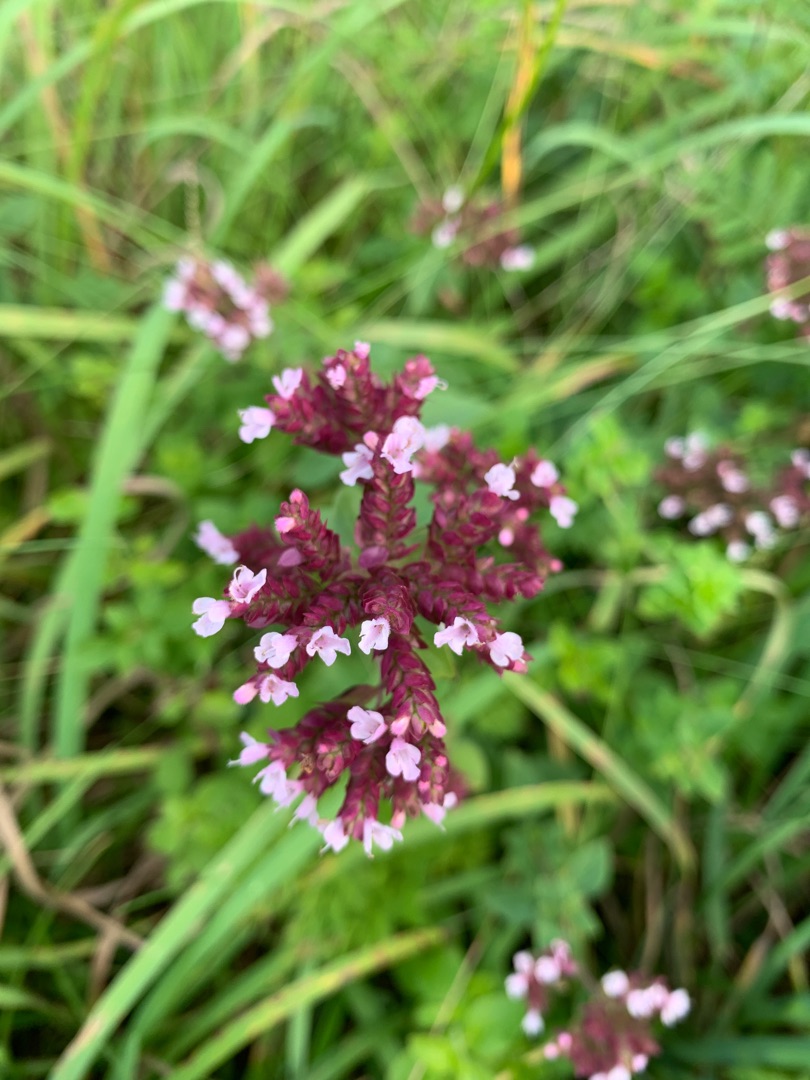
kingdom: Plantae
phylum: Tracheophyta
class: Magnoliopsida
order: Lamiales
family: Lamiaceae
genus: Origanum
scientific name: Origanum vulgare
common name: Merian
